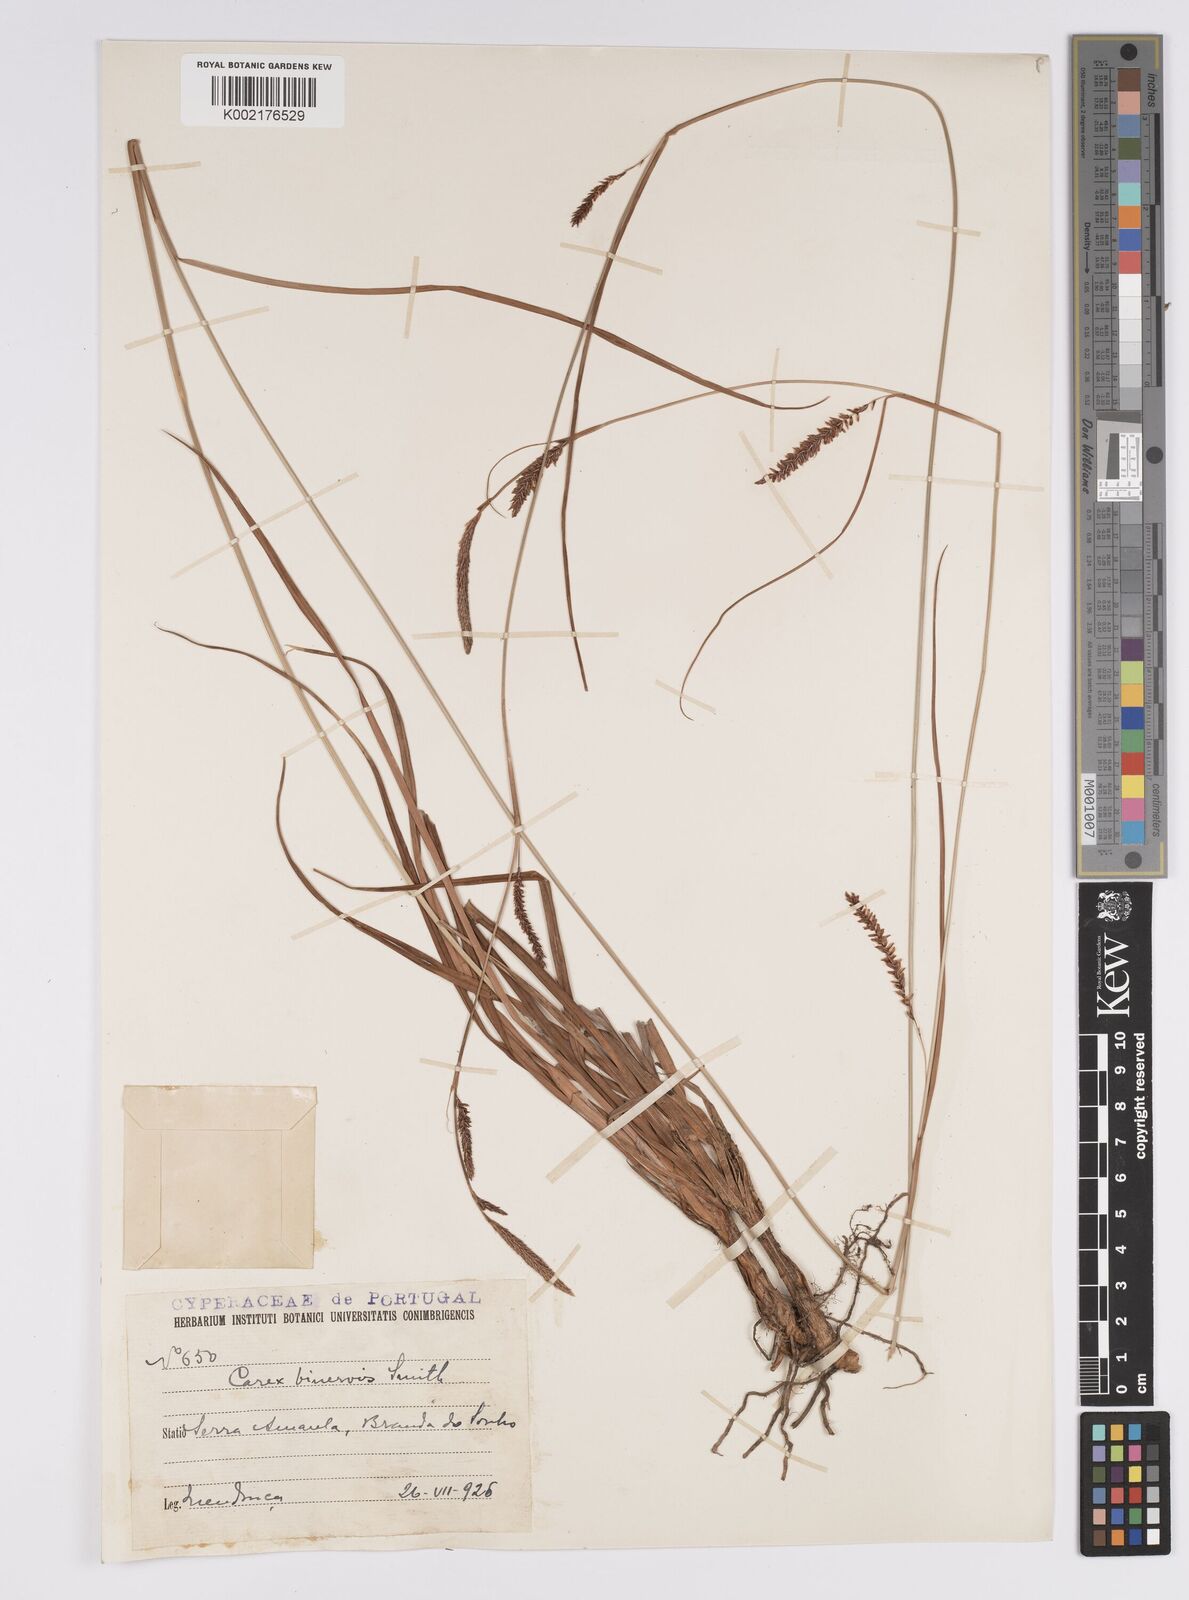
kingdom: Plantae
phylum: Tracheophyta
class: Liliopsida
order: Poales
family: Cyperaceae
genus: Carex
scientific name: Carex distans
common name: Distant sedge
